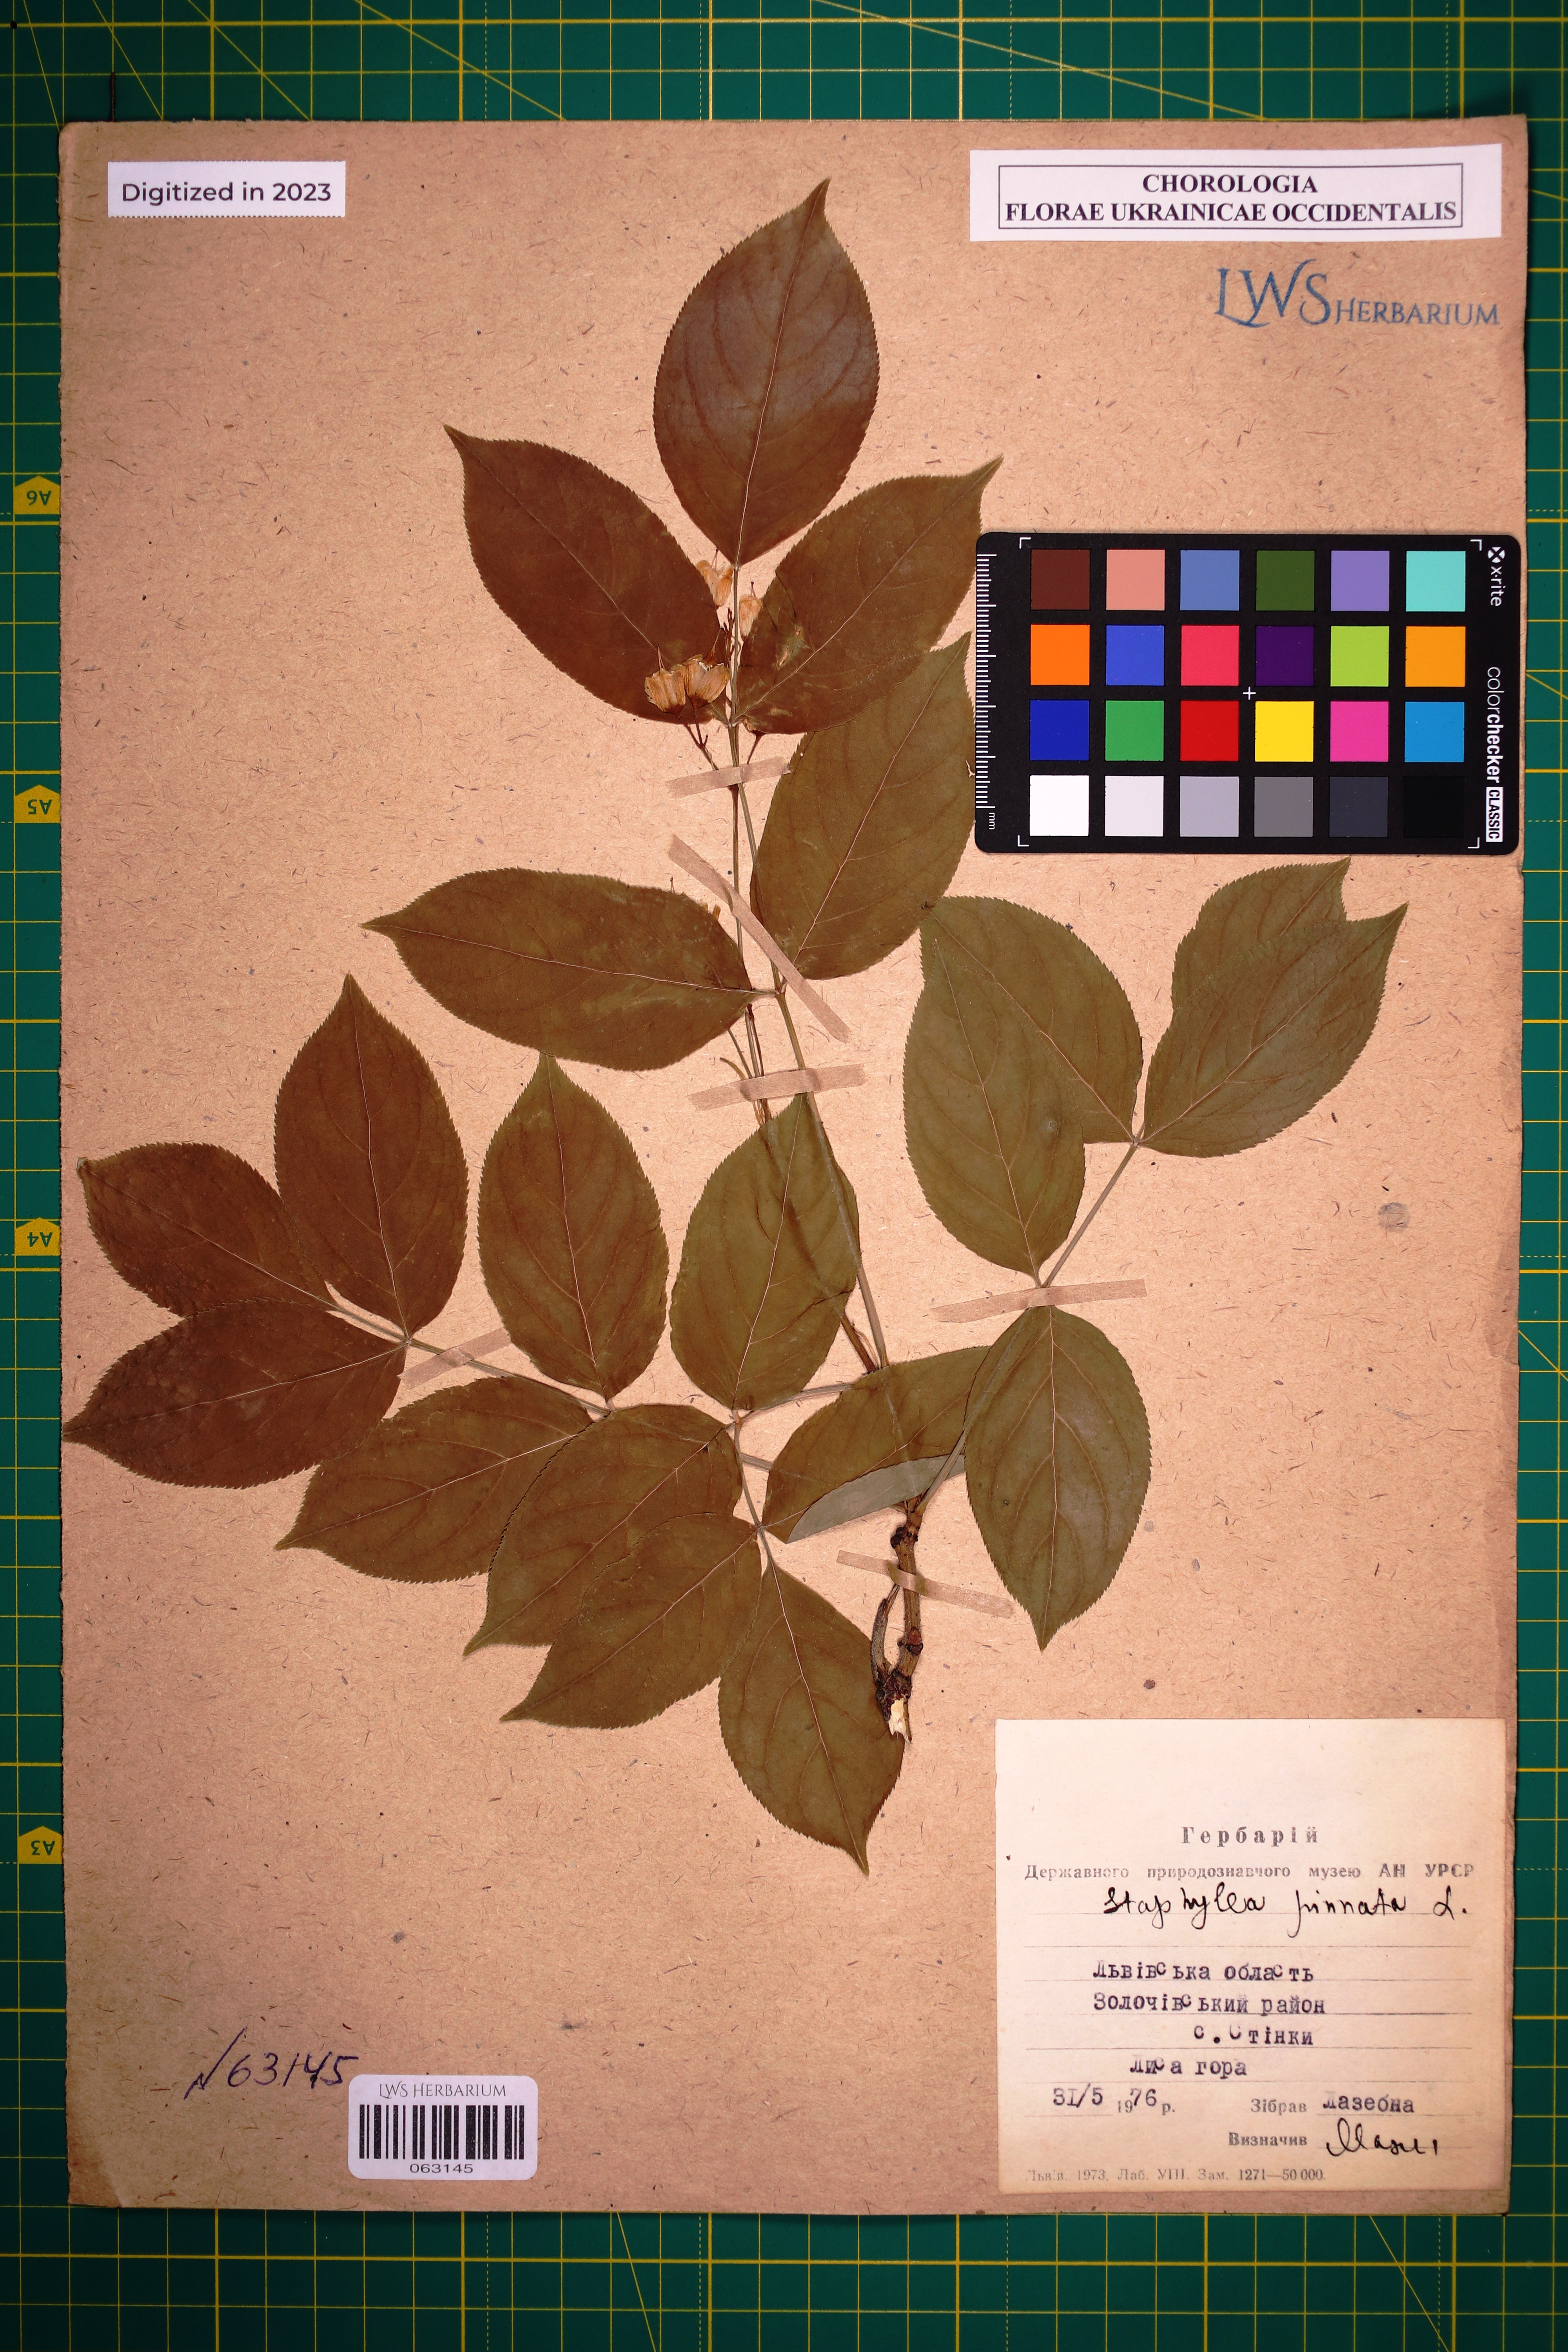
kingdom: Plantae
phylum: Tracheophyta
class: Magnoliopsida
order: Crossosomatales
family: Staphyleaceae
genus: Staphylea
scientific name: Staphylea pinnata
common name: Bladdernut
